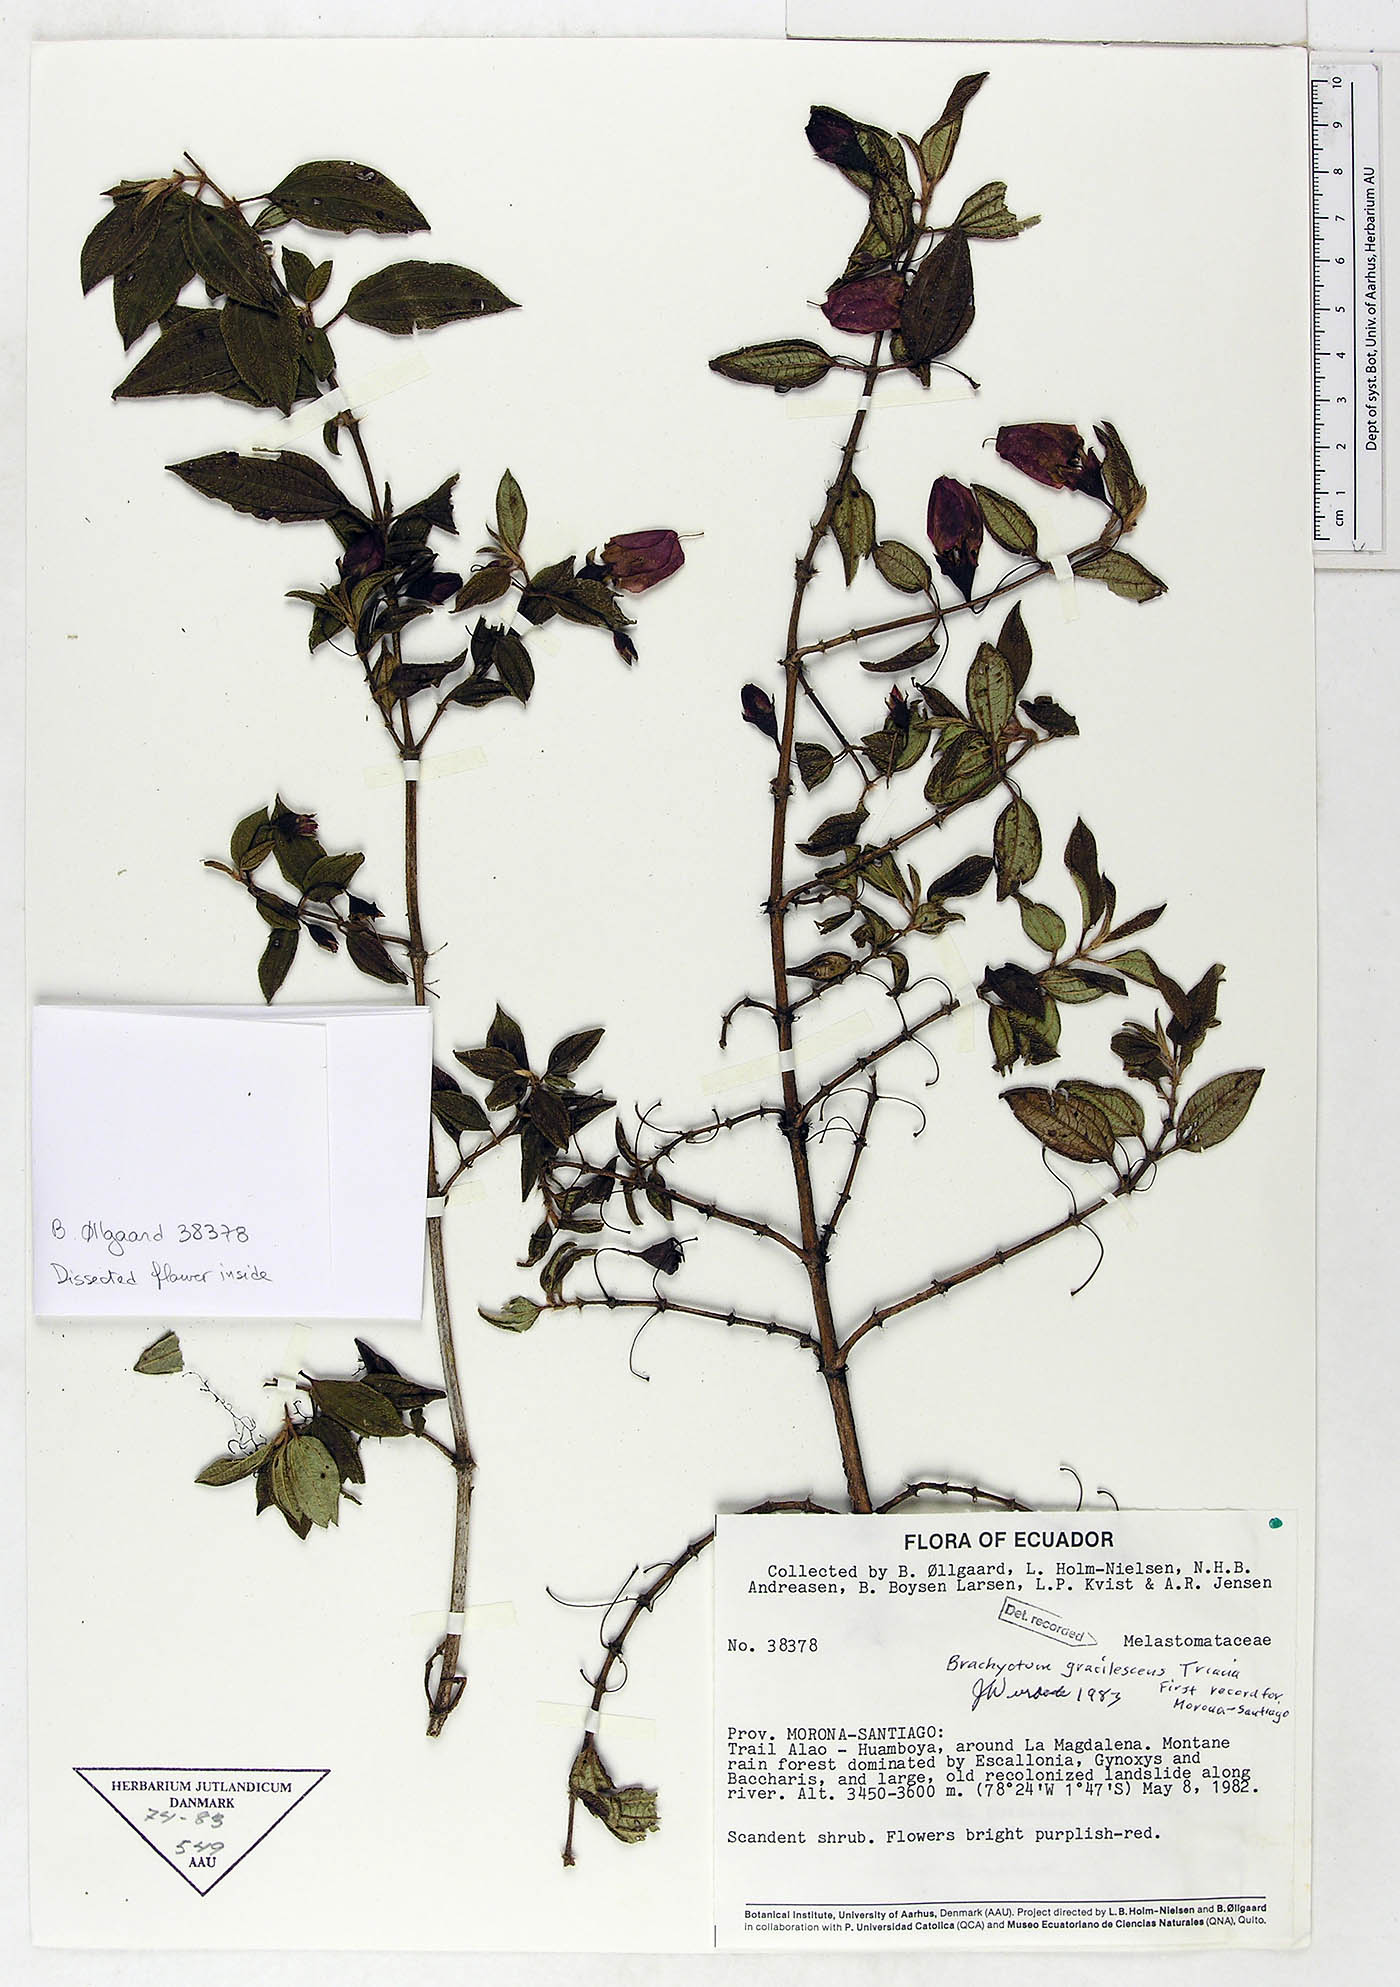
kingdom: Plantae
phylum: Tracheophyta
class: Magnoliopsida
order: Myrtales
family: Melastomataceae
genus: Brachyotum
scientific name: Brachyotum gracilescens
